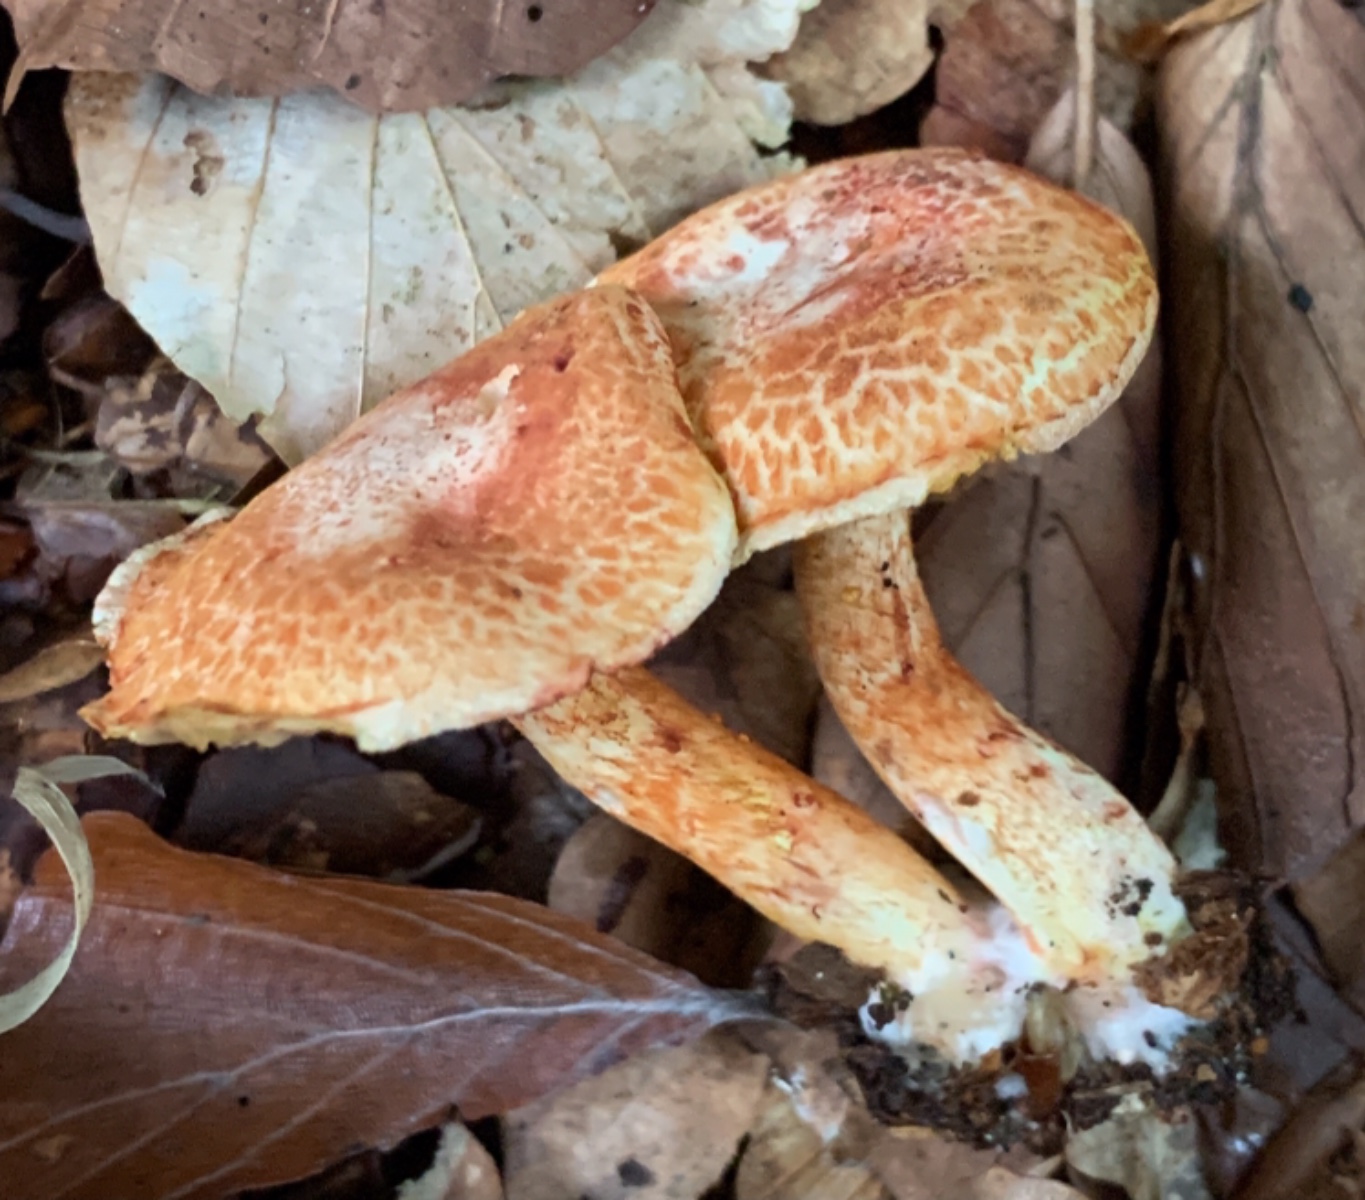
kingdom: Fungi
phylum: Basidiomycota
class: Agaricomycetes
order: Agaricales
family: Cortinariaceae
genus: Cortinarius
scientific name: Cortinarius bolaris
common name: cinnoberskællet slørhat
